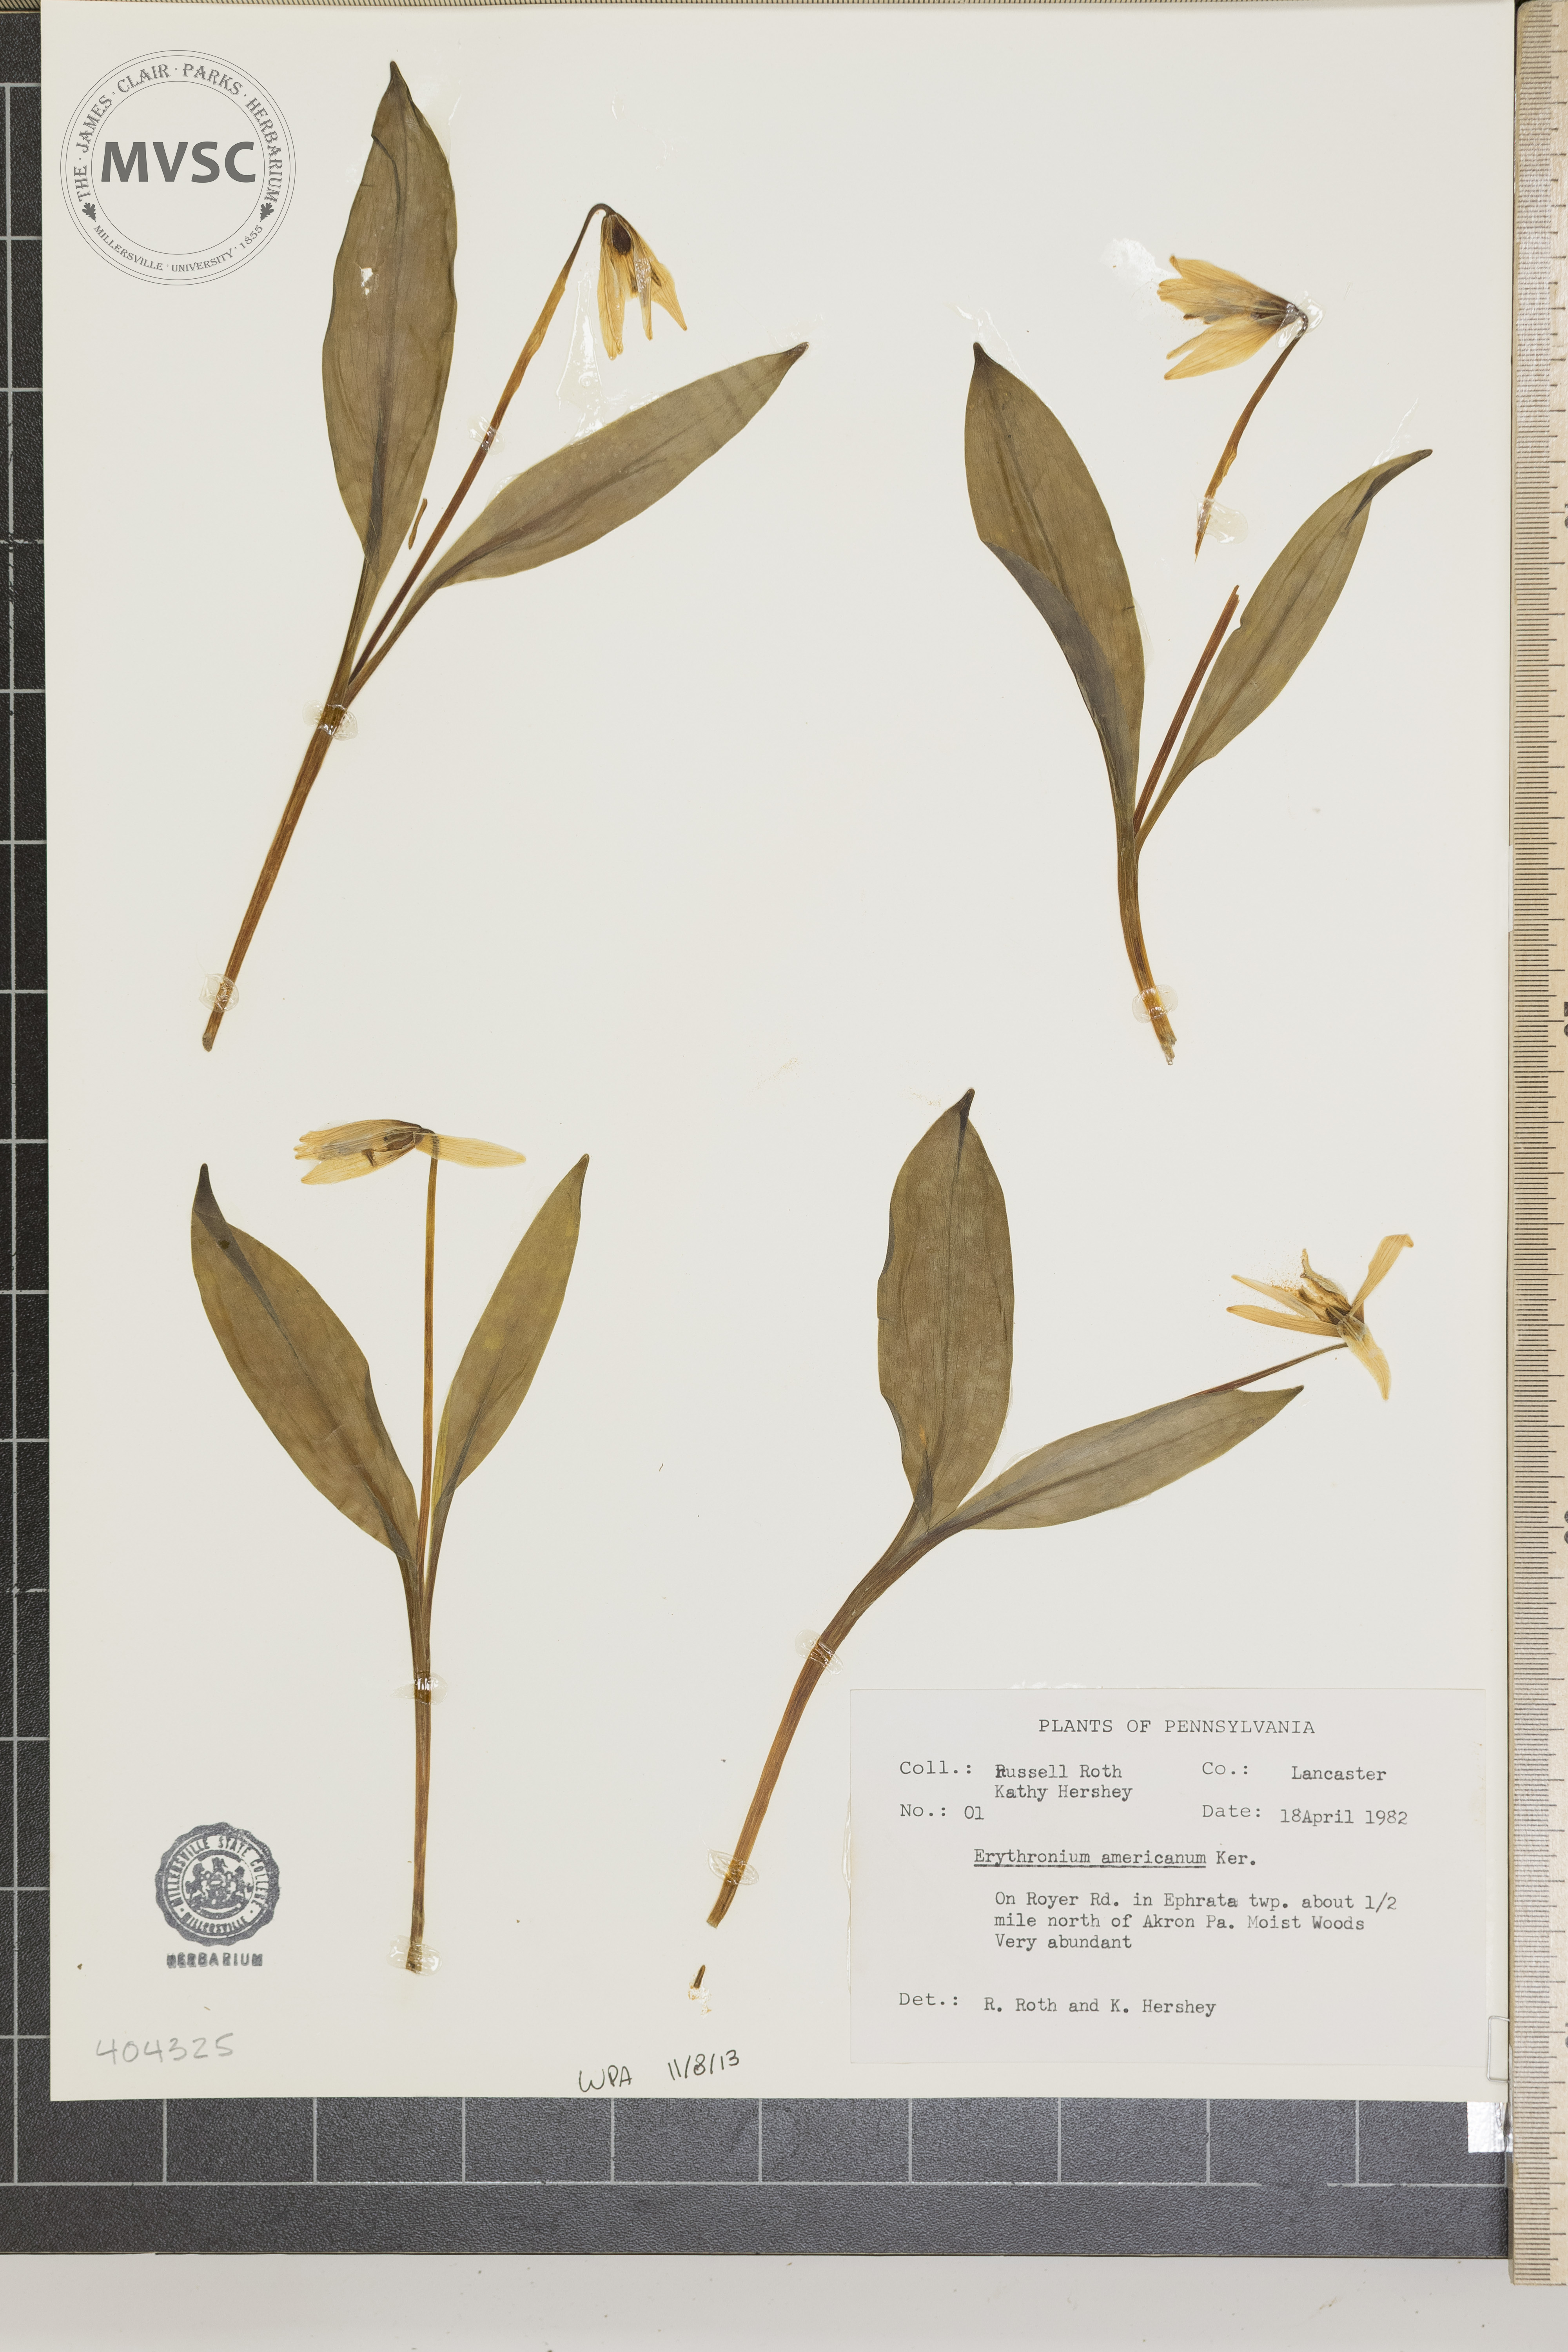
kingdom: Plantae
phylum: Tracheophyta
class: Liliopsida
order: Liliales
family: Liliaceae
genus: Erythronium
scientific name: Erythronium americanum
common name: Yellow adder's-tongue
